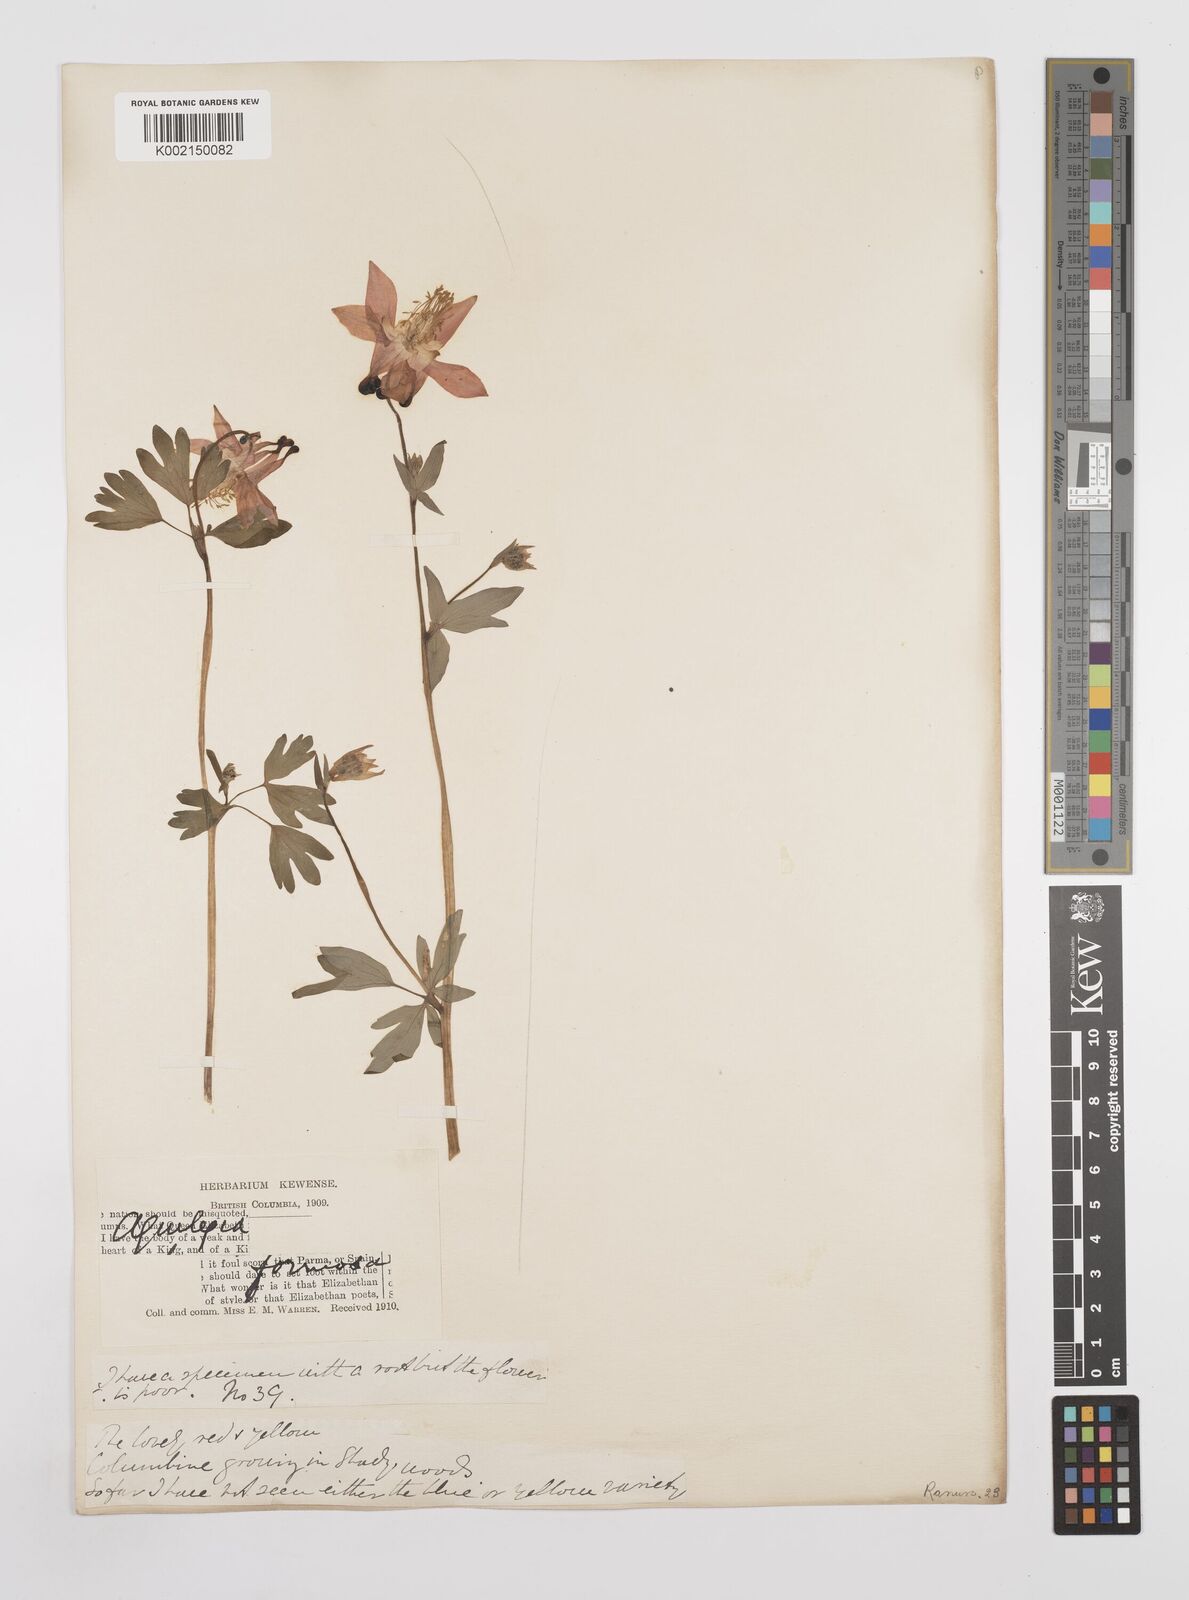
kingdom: Plantae
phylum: Tracheophyta
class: Magnoliopsida
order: Ranunculales
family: Ranunculaceae
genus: Aquilegia
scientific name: Aquilegia
